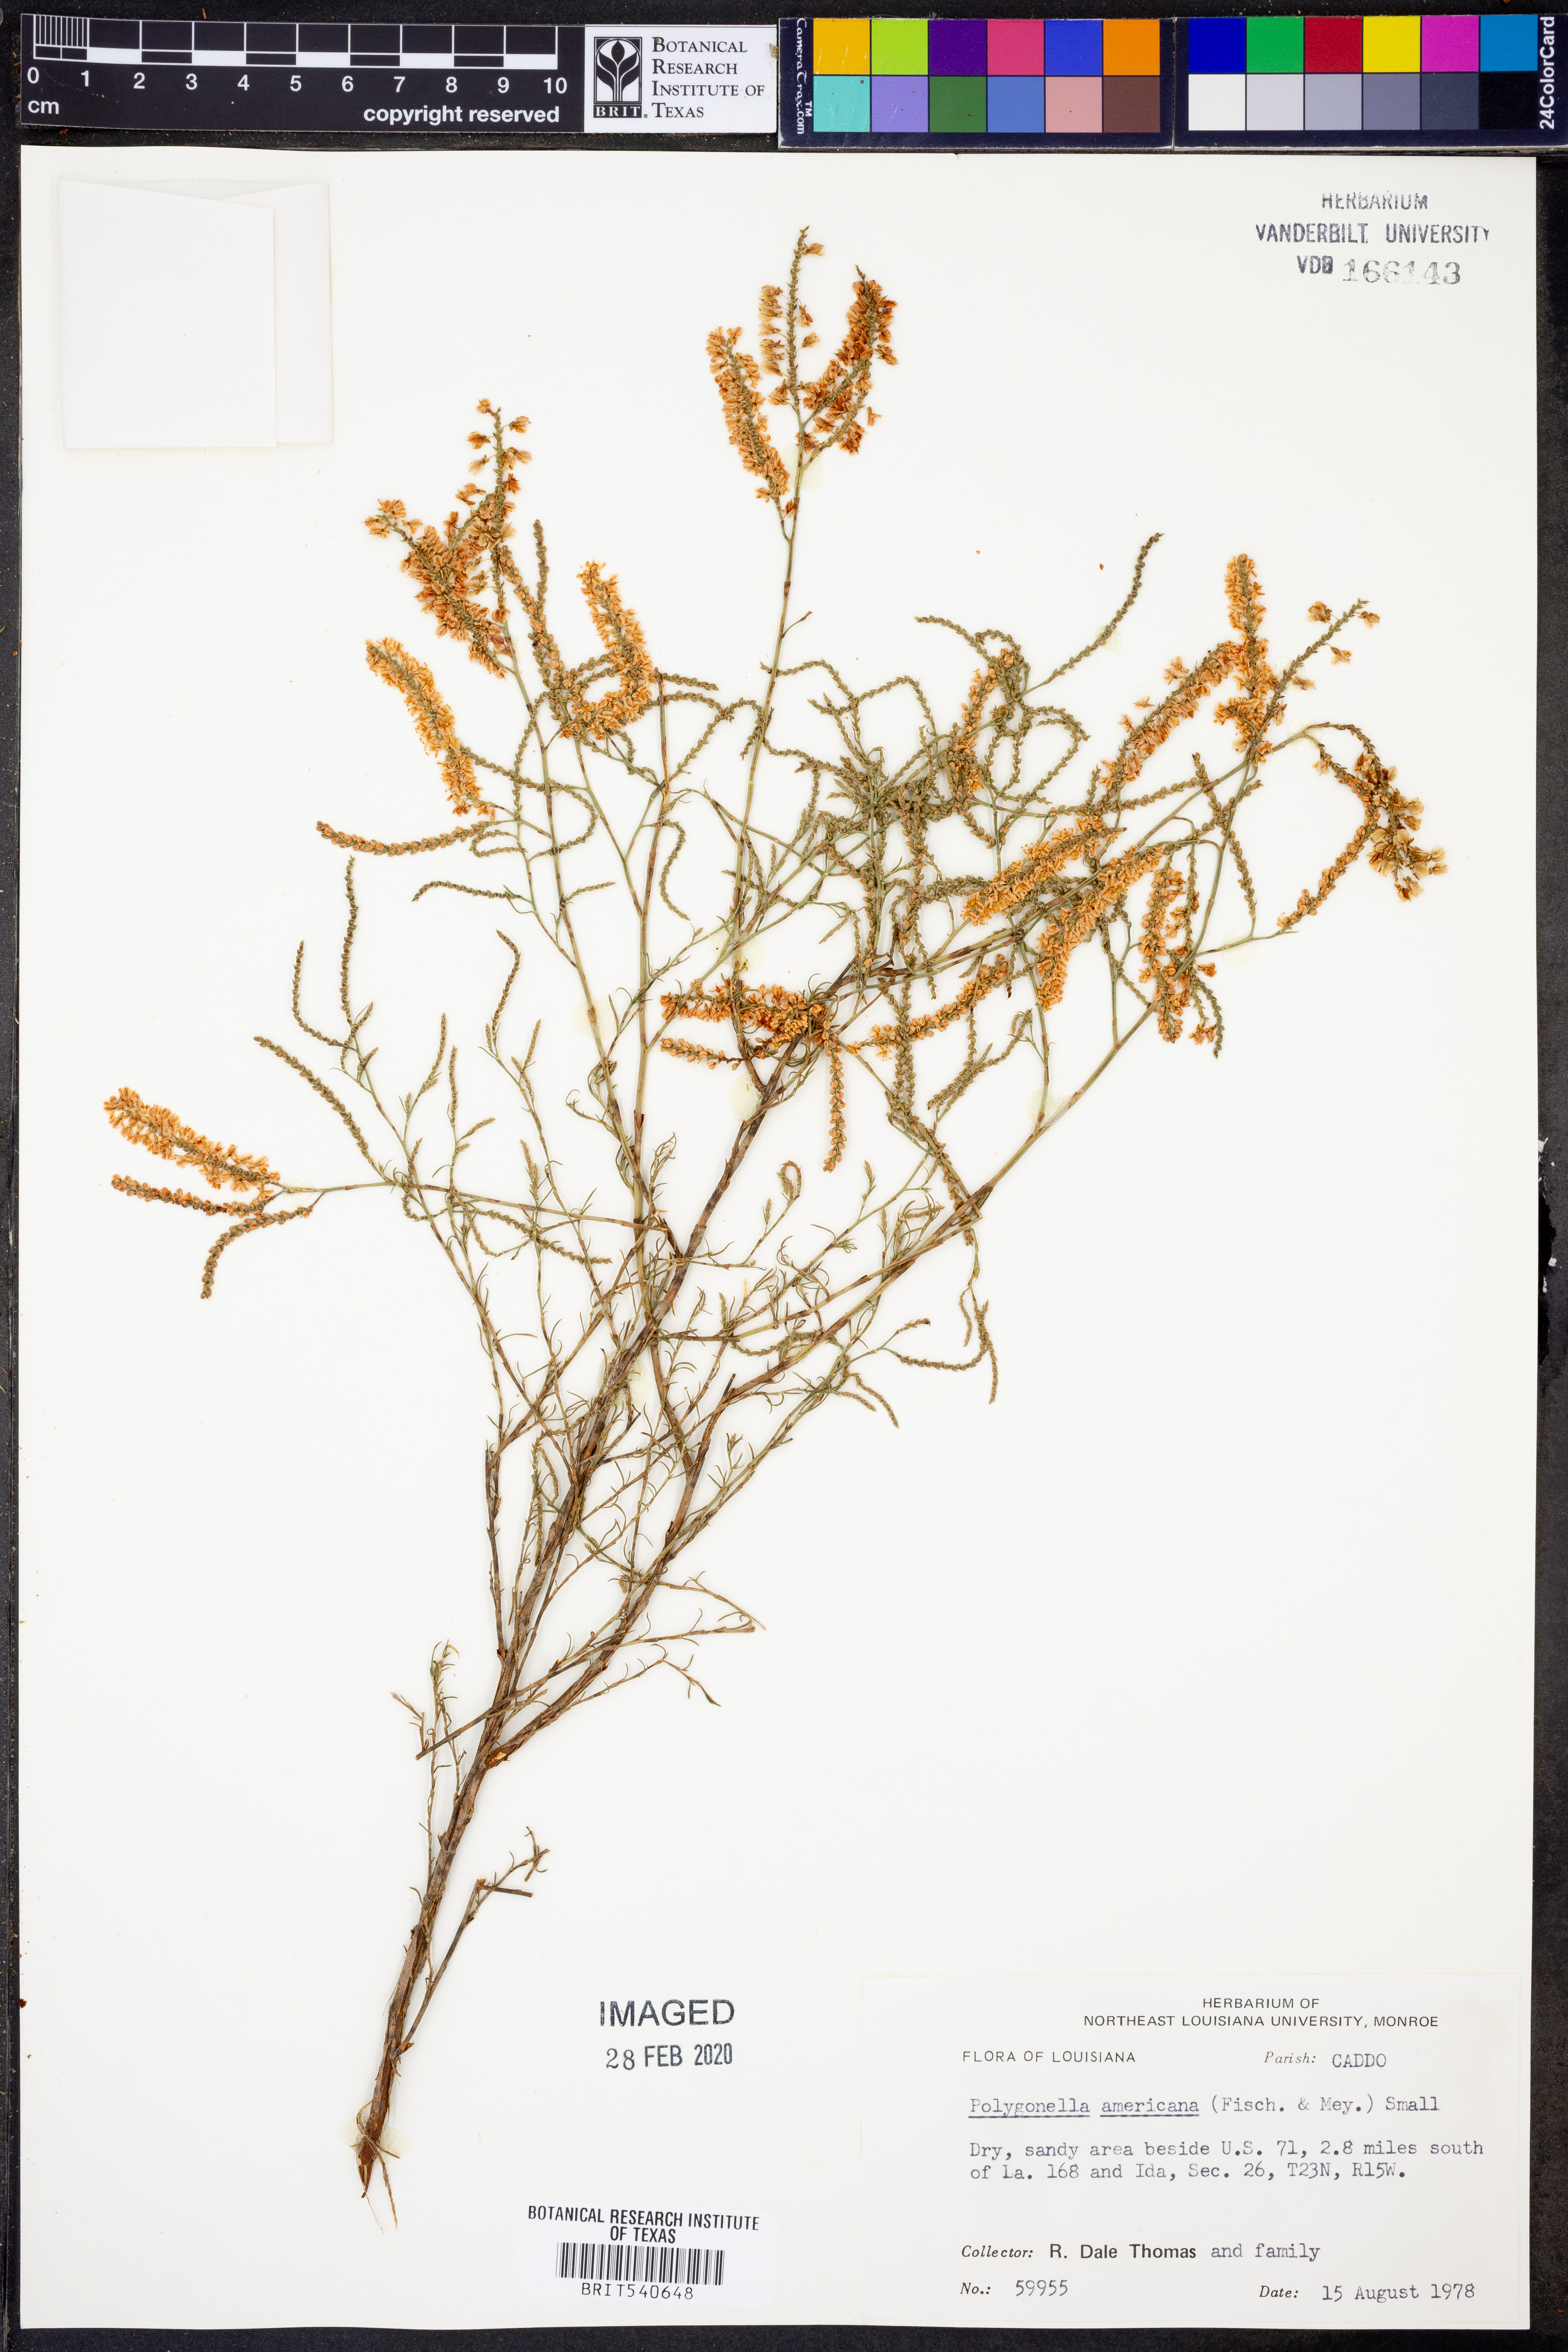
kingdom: Plantae
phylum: Tracheophyta
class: Magnoliopsida
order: Caryophyllales
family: Polygonaceae
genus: Polygonella
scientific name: Polygonella americana
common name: Southern jointweed
